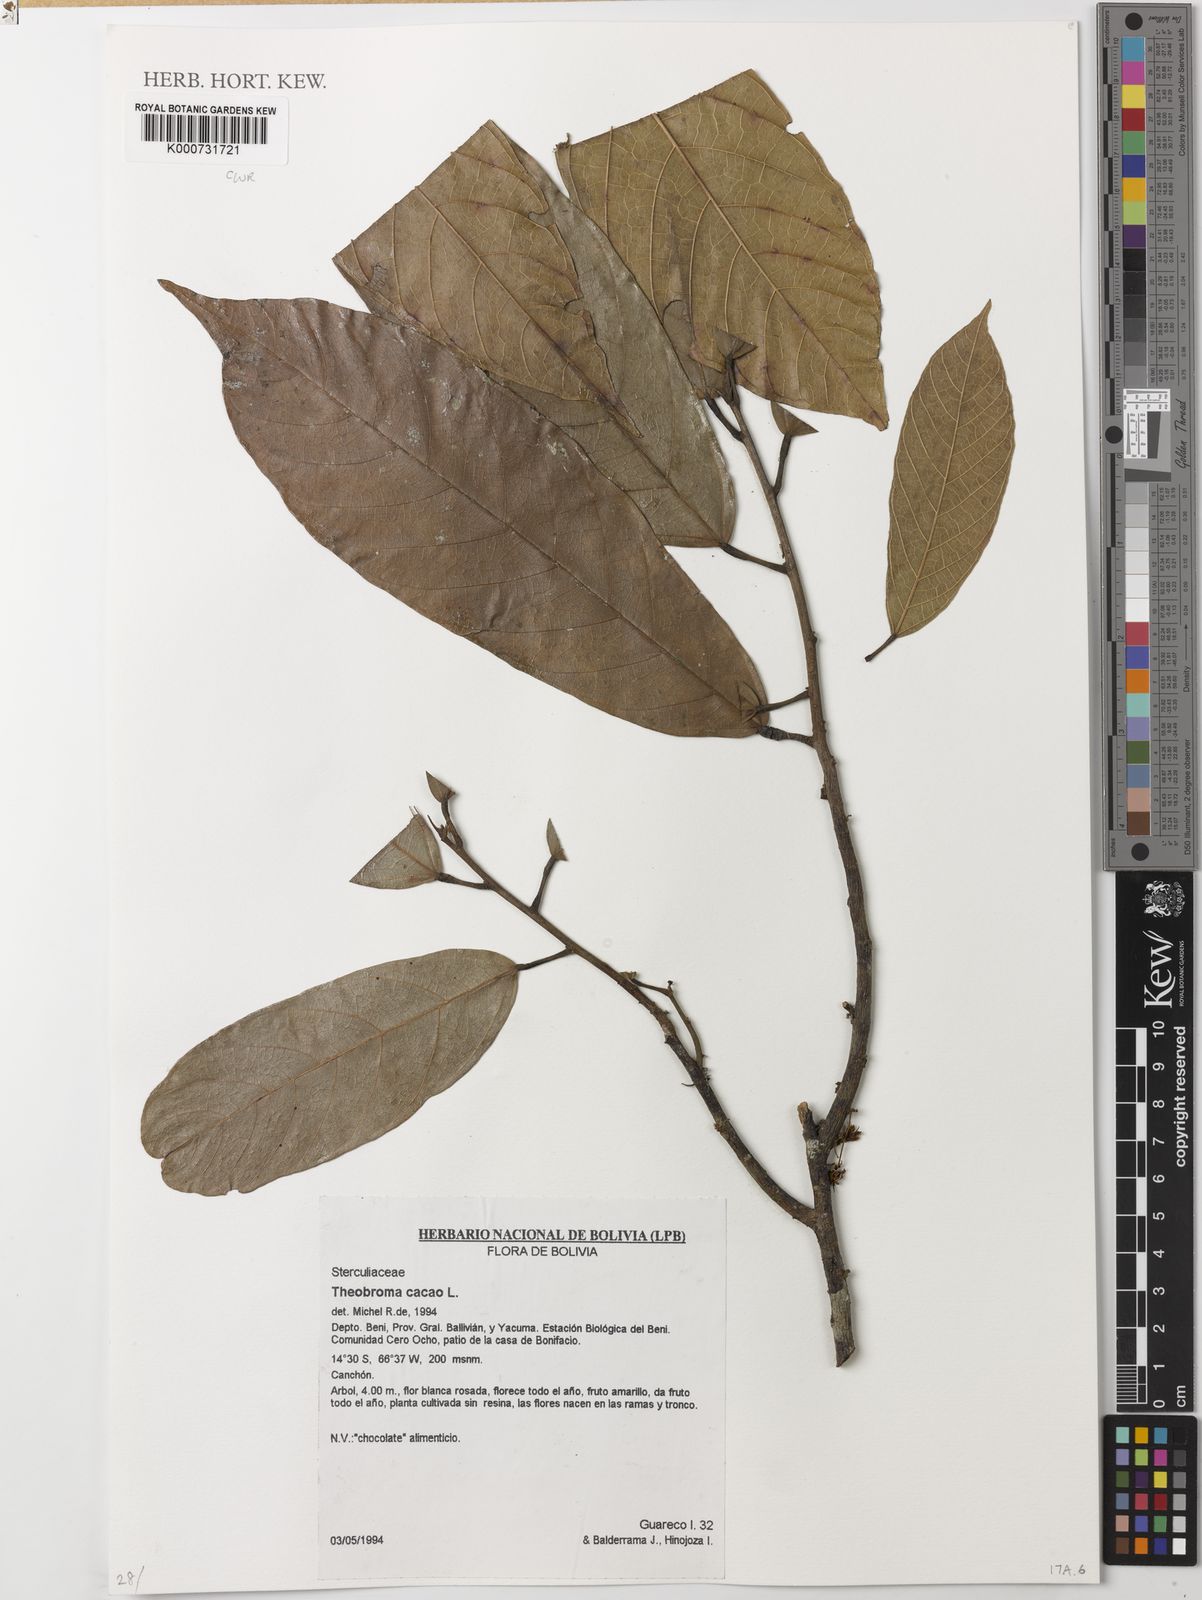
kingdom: Plantae
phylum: Tracheophyta
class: Magnoliopsida
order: Malvales
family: Malvaceae
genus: Theobroma
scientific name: Theobroma cacao
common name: Cocoa
